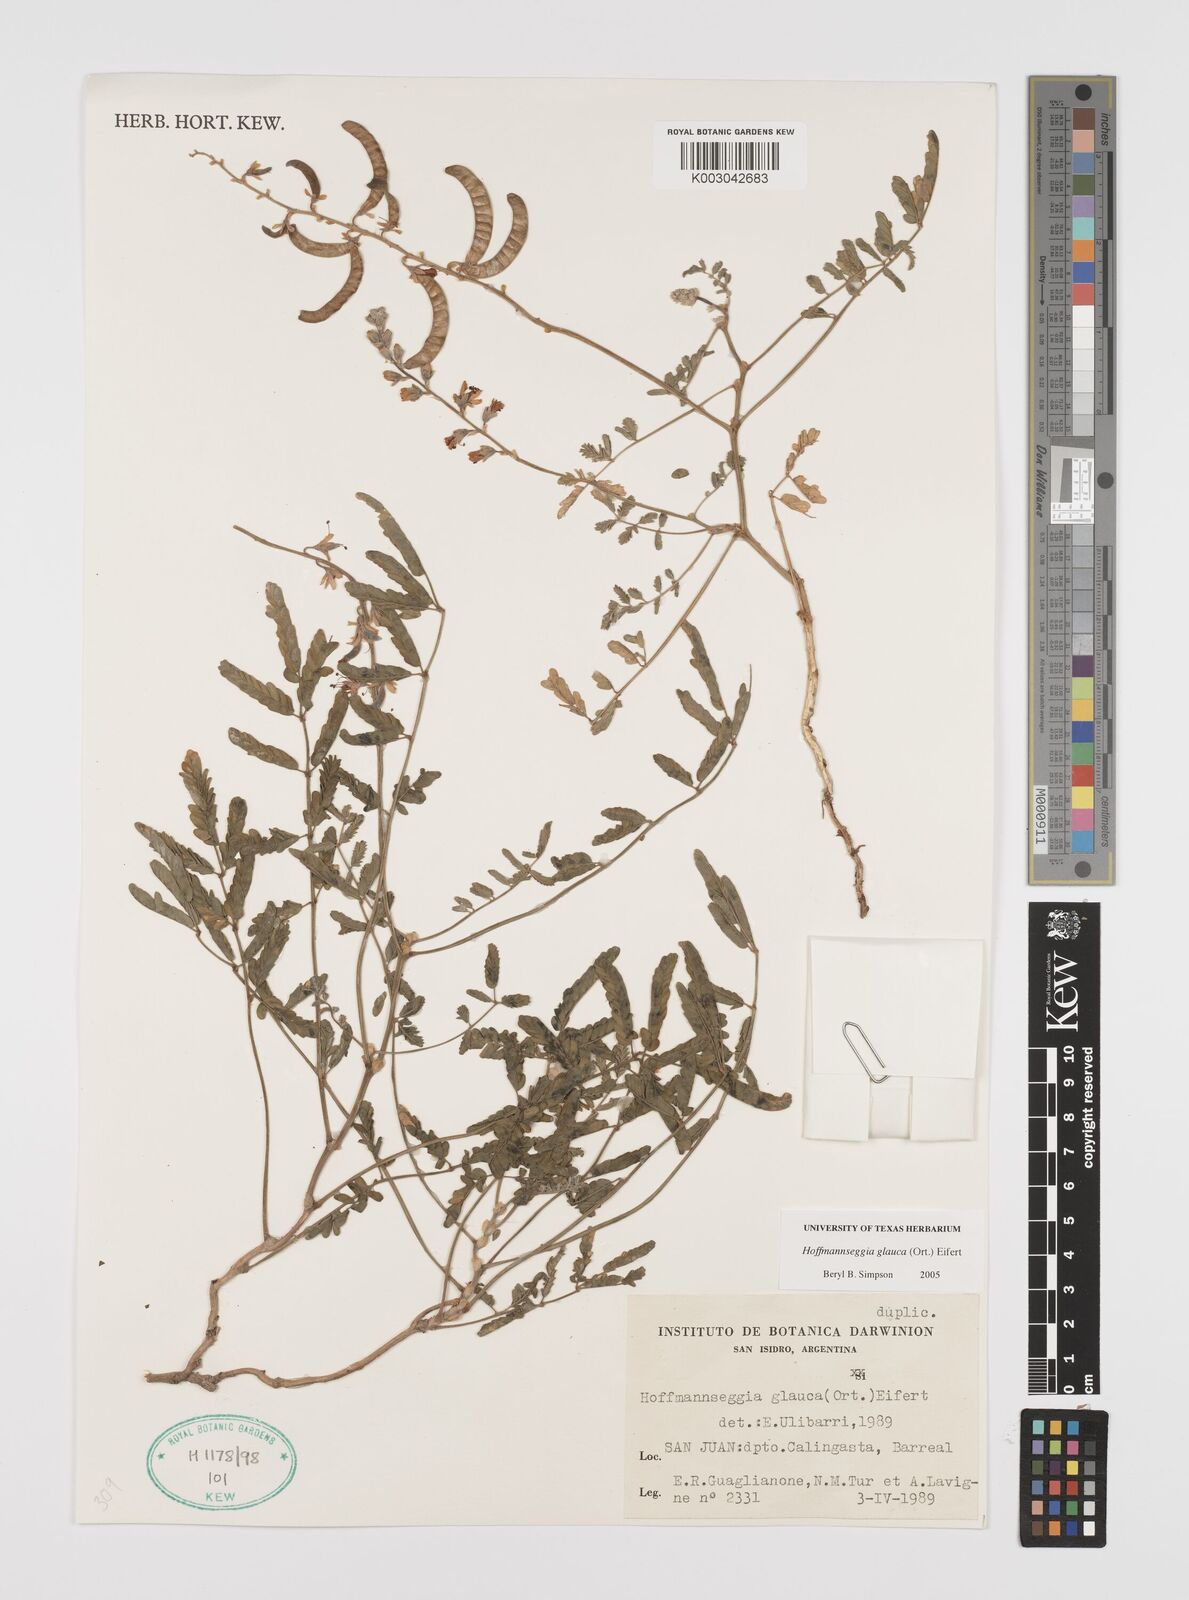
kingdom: Plantae
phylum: Tracheophyta
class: Magnoliopsida
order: Fabales
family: Fabaceae
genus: Hoffmannseggia
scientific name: Hoffmannseggia glauca
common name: Pignut
